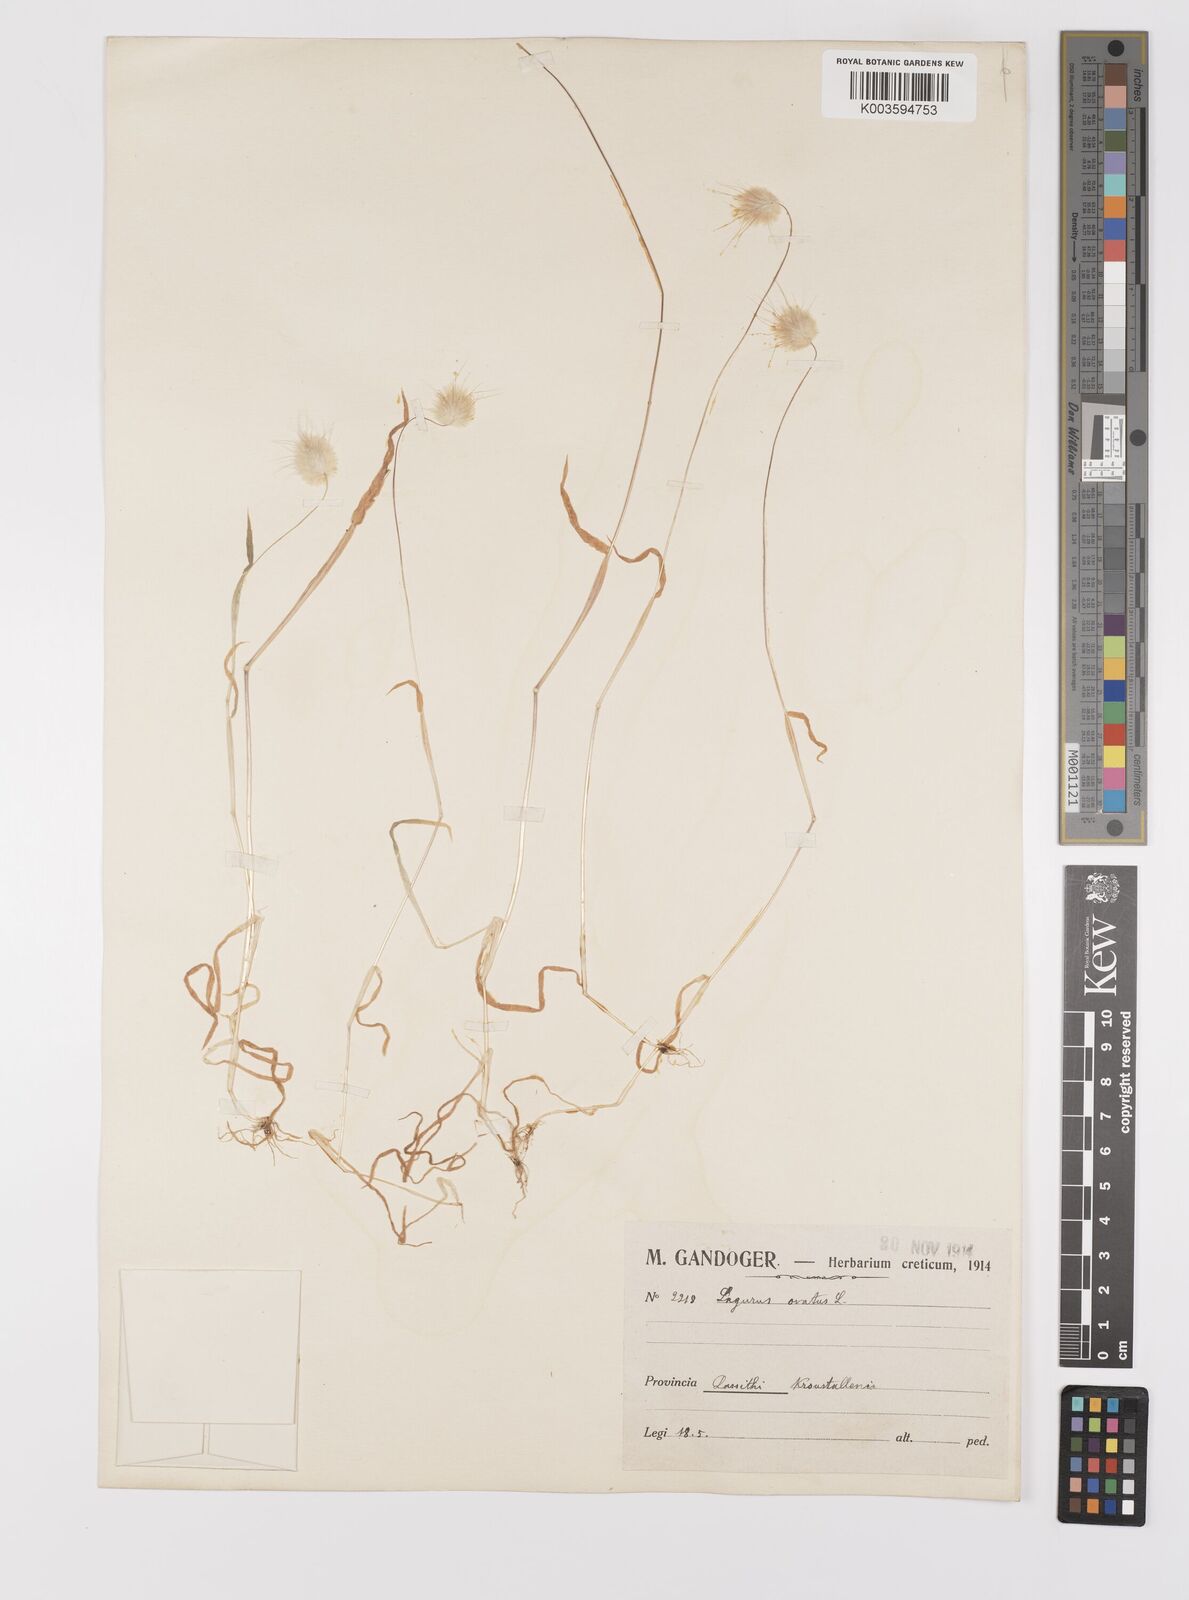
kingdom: Plantae
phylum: Tracheophyta
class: Liliopsida
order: Poales
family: Poaceae
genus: Lagurus
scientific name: Lagurus ovatus
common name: Hare's-tail
